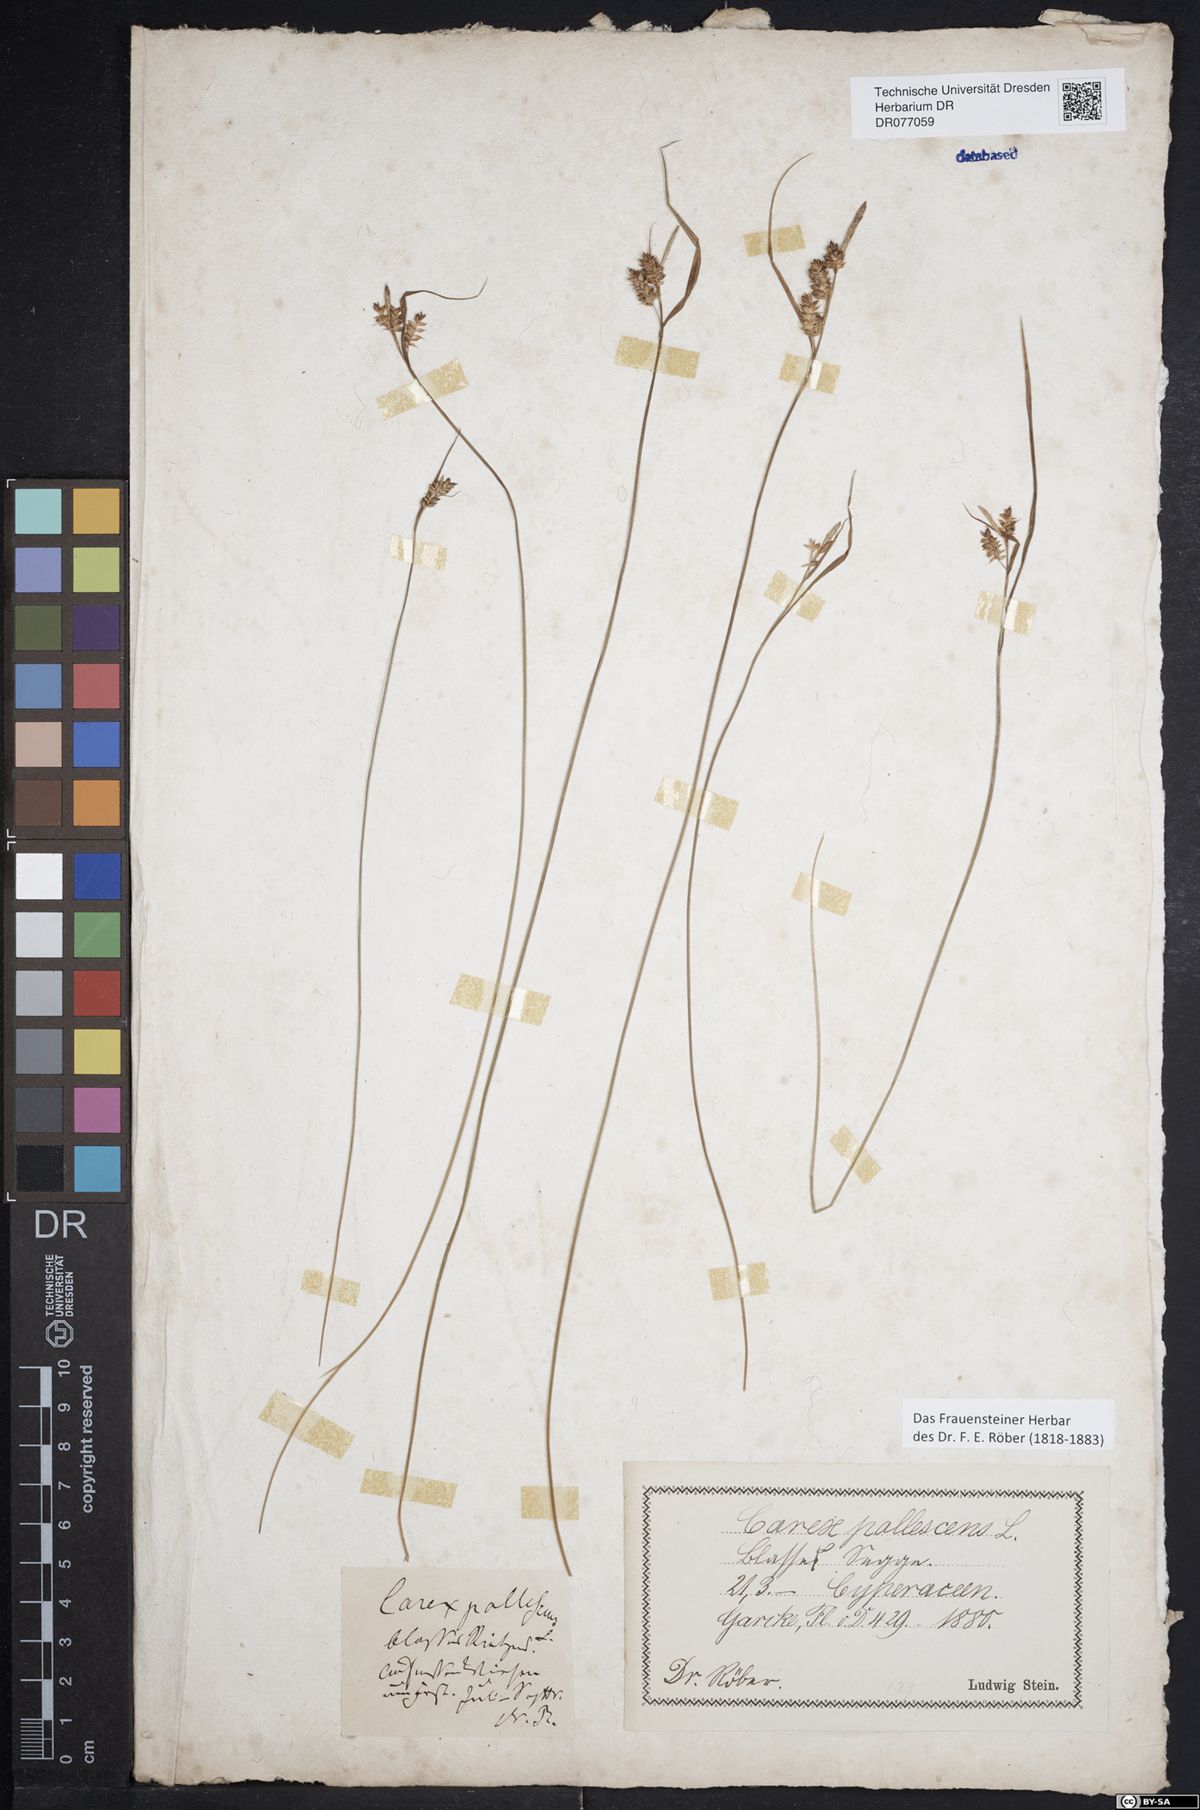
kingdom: Plantae
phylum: Tracheophyta
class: Liliopsida
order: Poales
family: Cyperaceae
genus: Carex
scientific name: Carex pallescens
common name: Pale sedge
